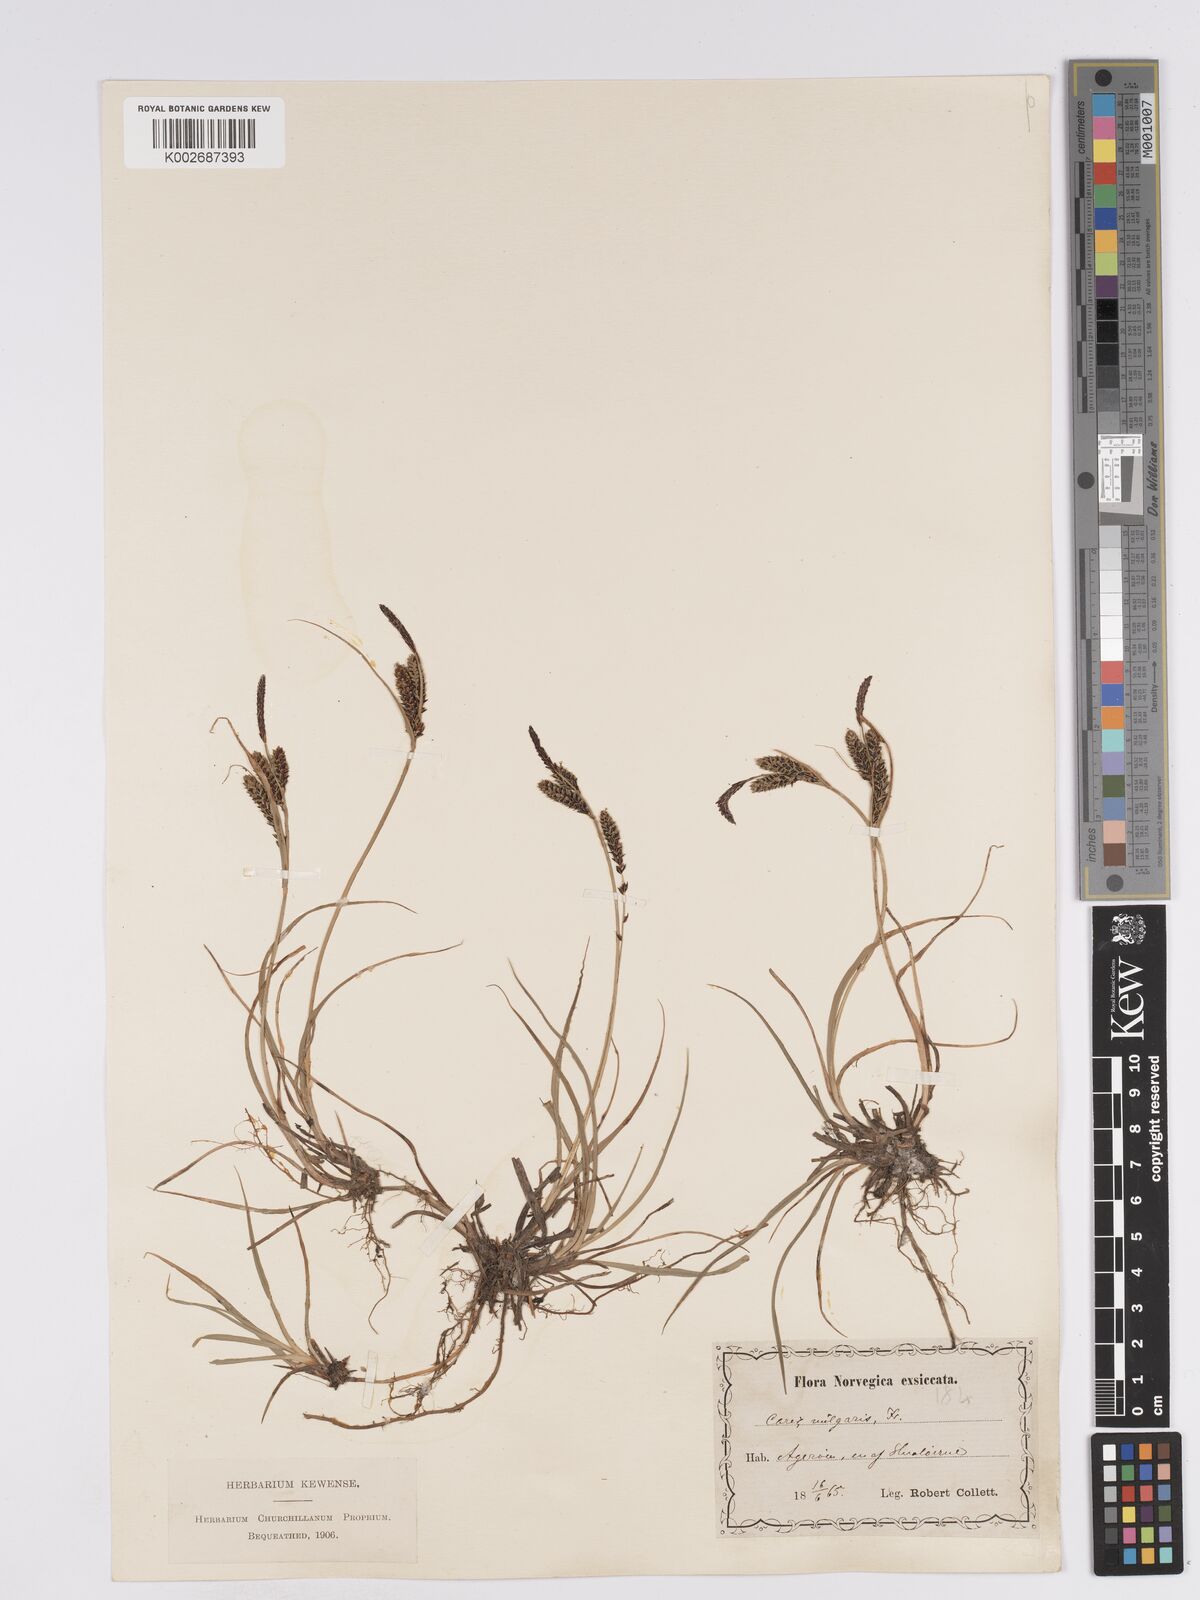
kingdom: Plantae
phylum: Tracheophyta
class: Liliopsida
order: Poales
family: Cyperaceae
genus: Carex
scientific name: Carex nigra
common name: Common sedge
